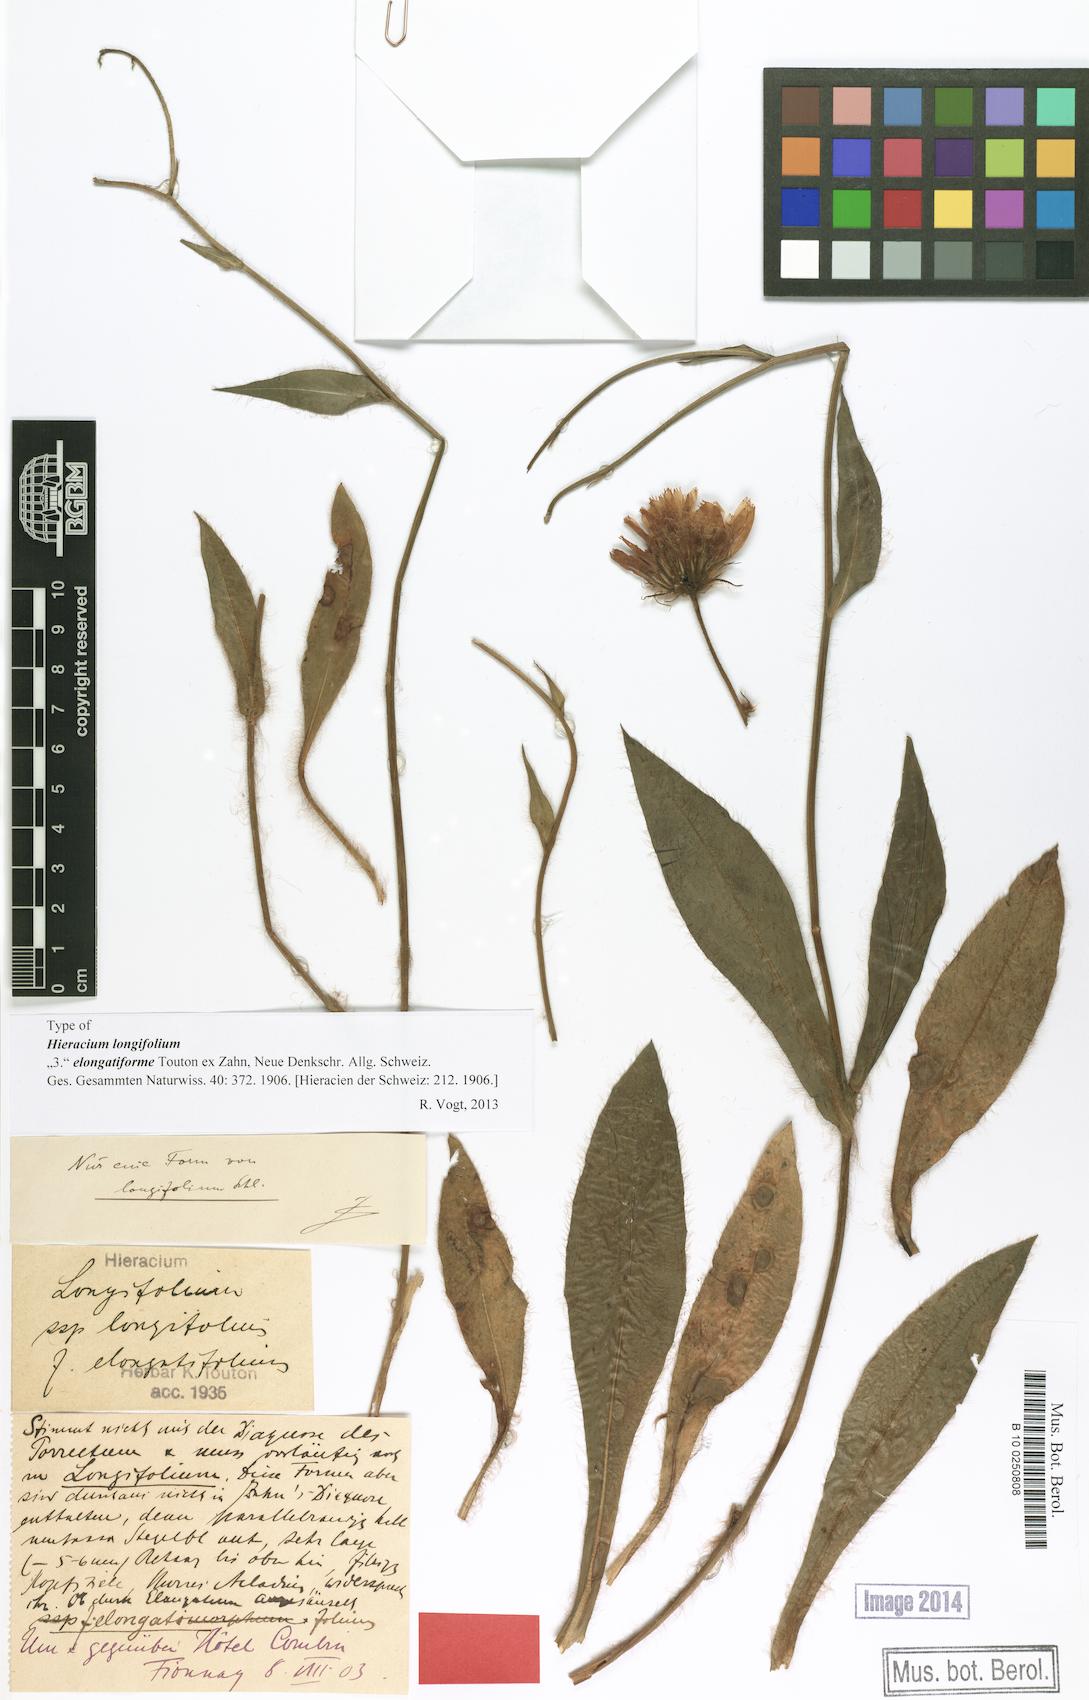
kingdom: Plantae
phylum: Tracheophyta
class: Magnoliopsida
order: Asterales
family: Asteraceae
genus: Hieracium
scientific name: Hieracium longifolium
